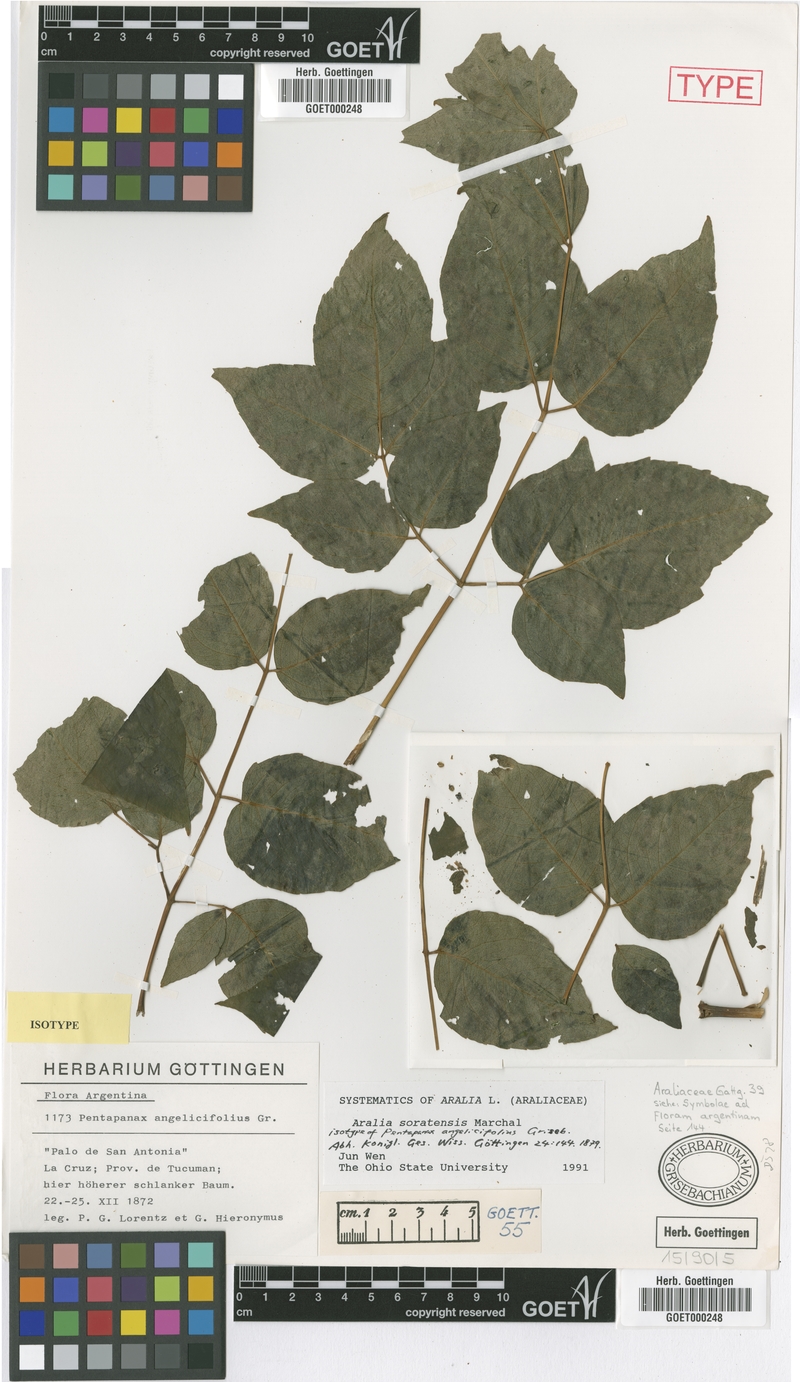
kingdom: Plantae
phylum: Tracheophyta
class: Magnoliopsida
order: Apiales
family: Araliaceae
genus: Aralia
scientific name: Aralia soratensis
